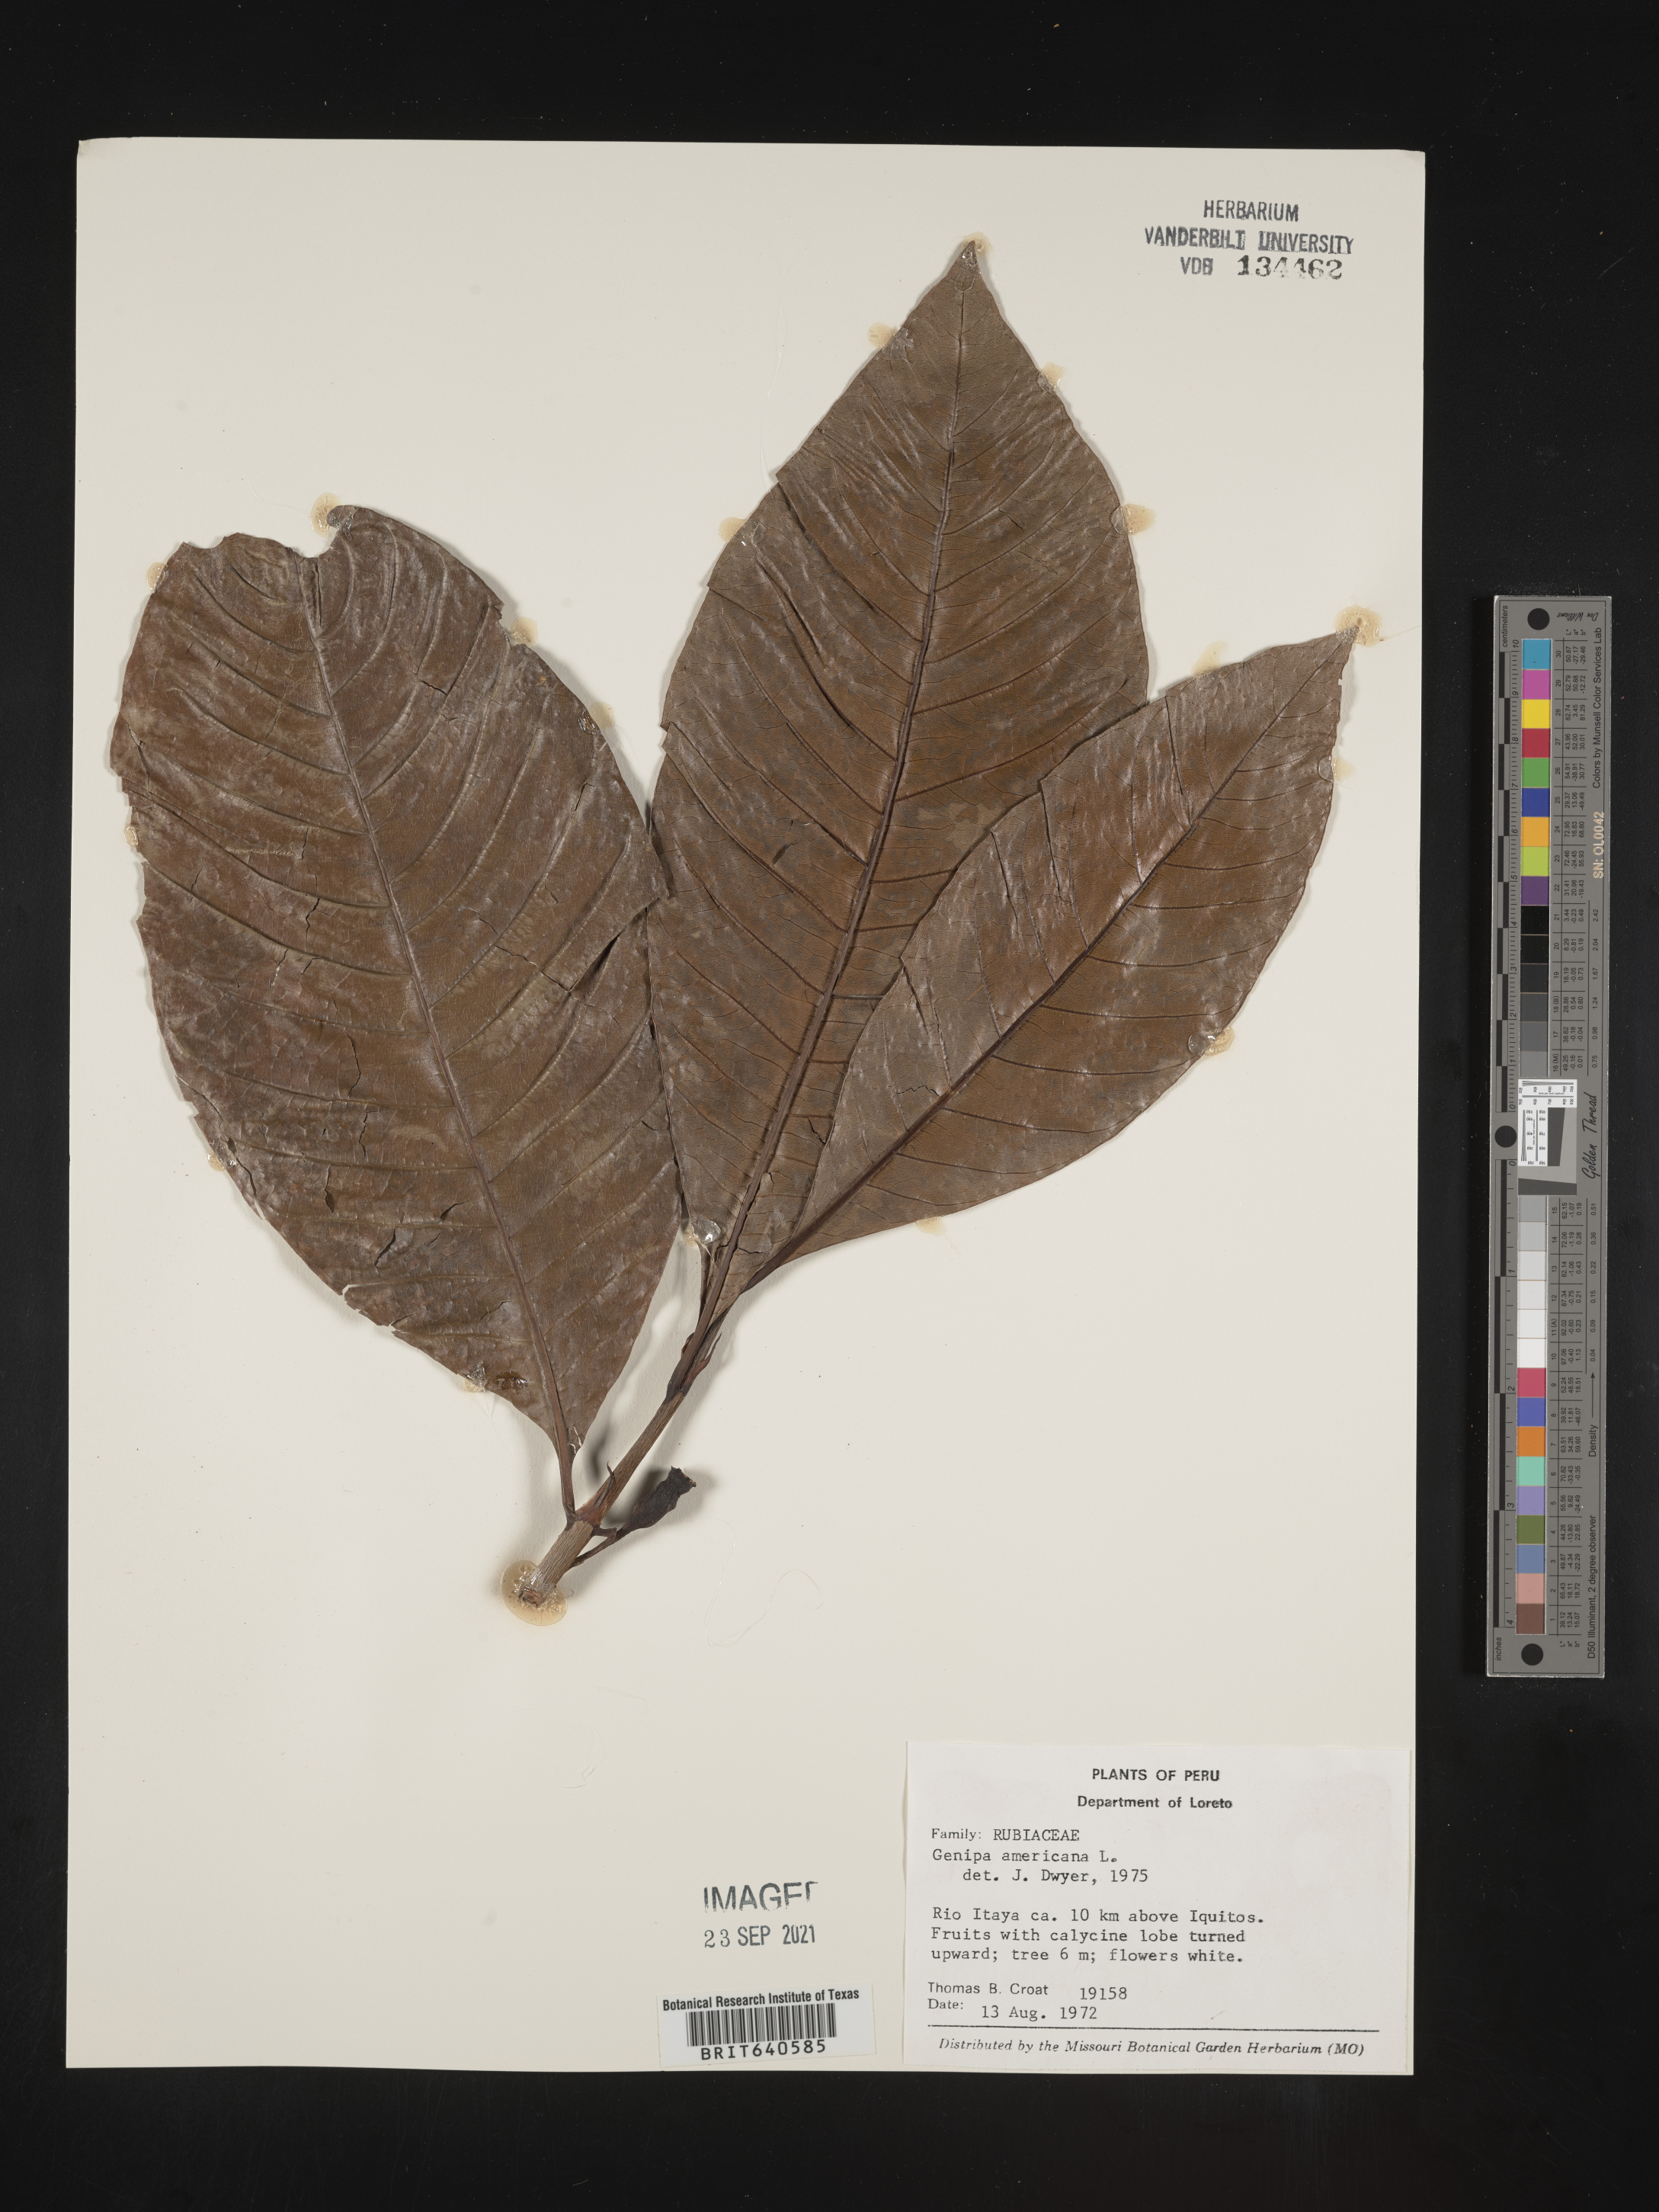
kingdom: Plantae
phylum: Tracheophyta
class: Magnoliopsida
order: Gentianales
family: Rubiaceae
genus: Genipa
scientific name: Genipa
